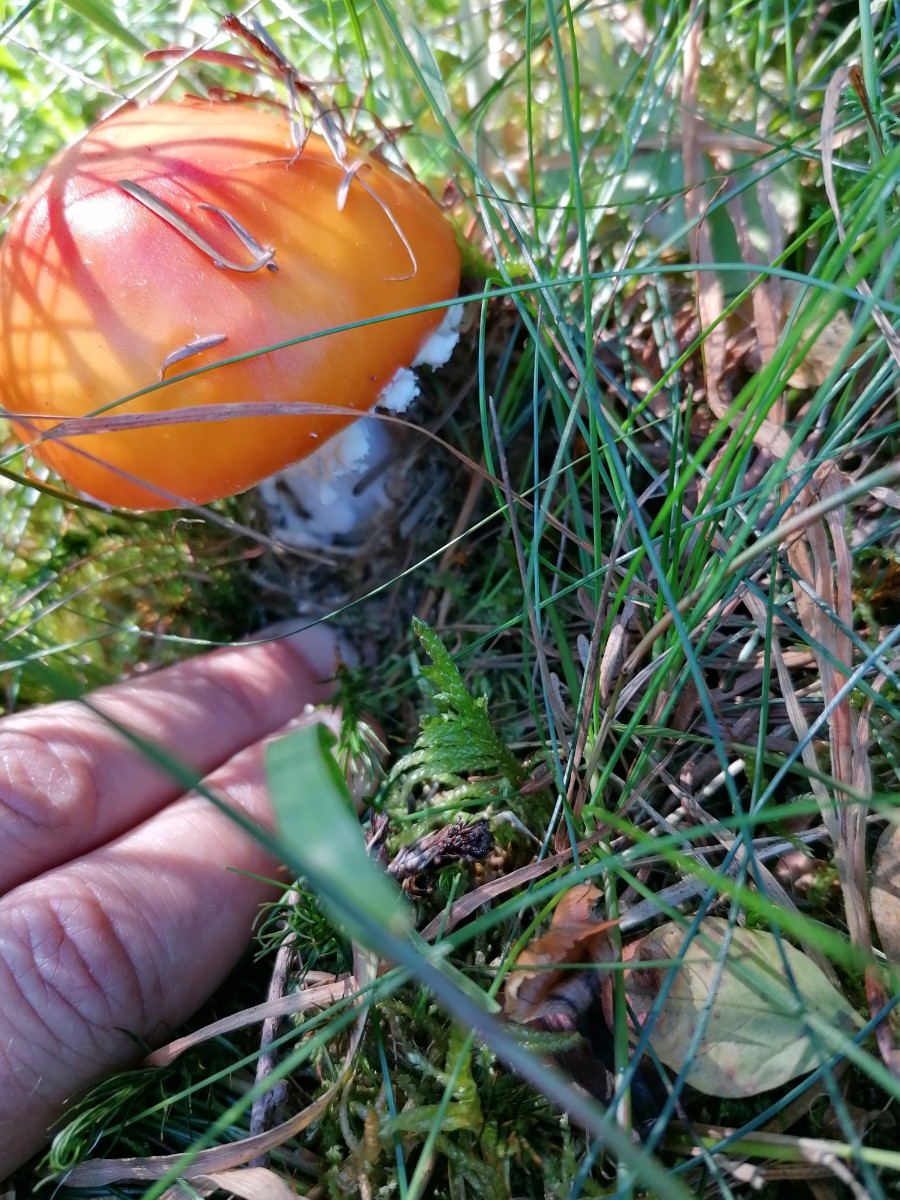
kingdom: Fungi
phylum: Basidiomycota
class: Agaricomycetes
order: Agaricales
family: Amanitaceae
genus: Amanita
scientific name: Amanita muscaria
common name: rød fluesvamp
